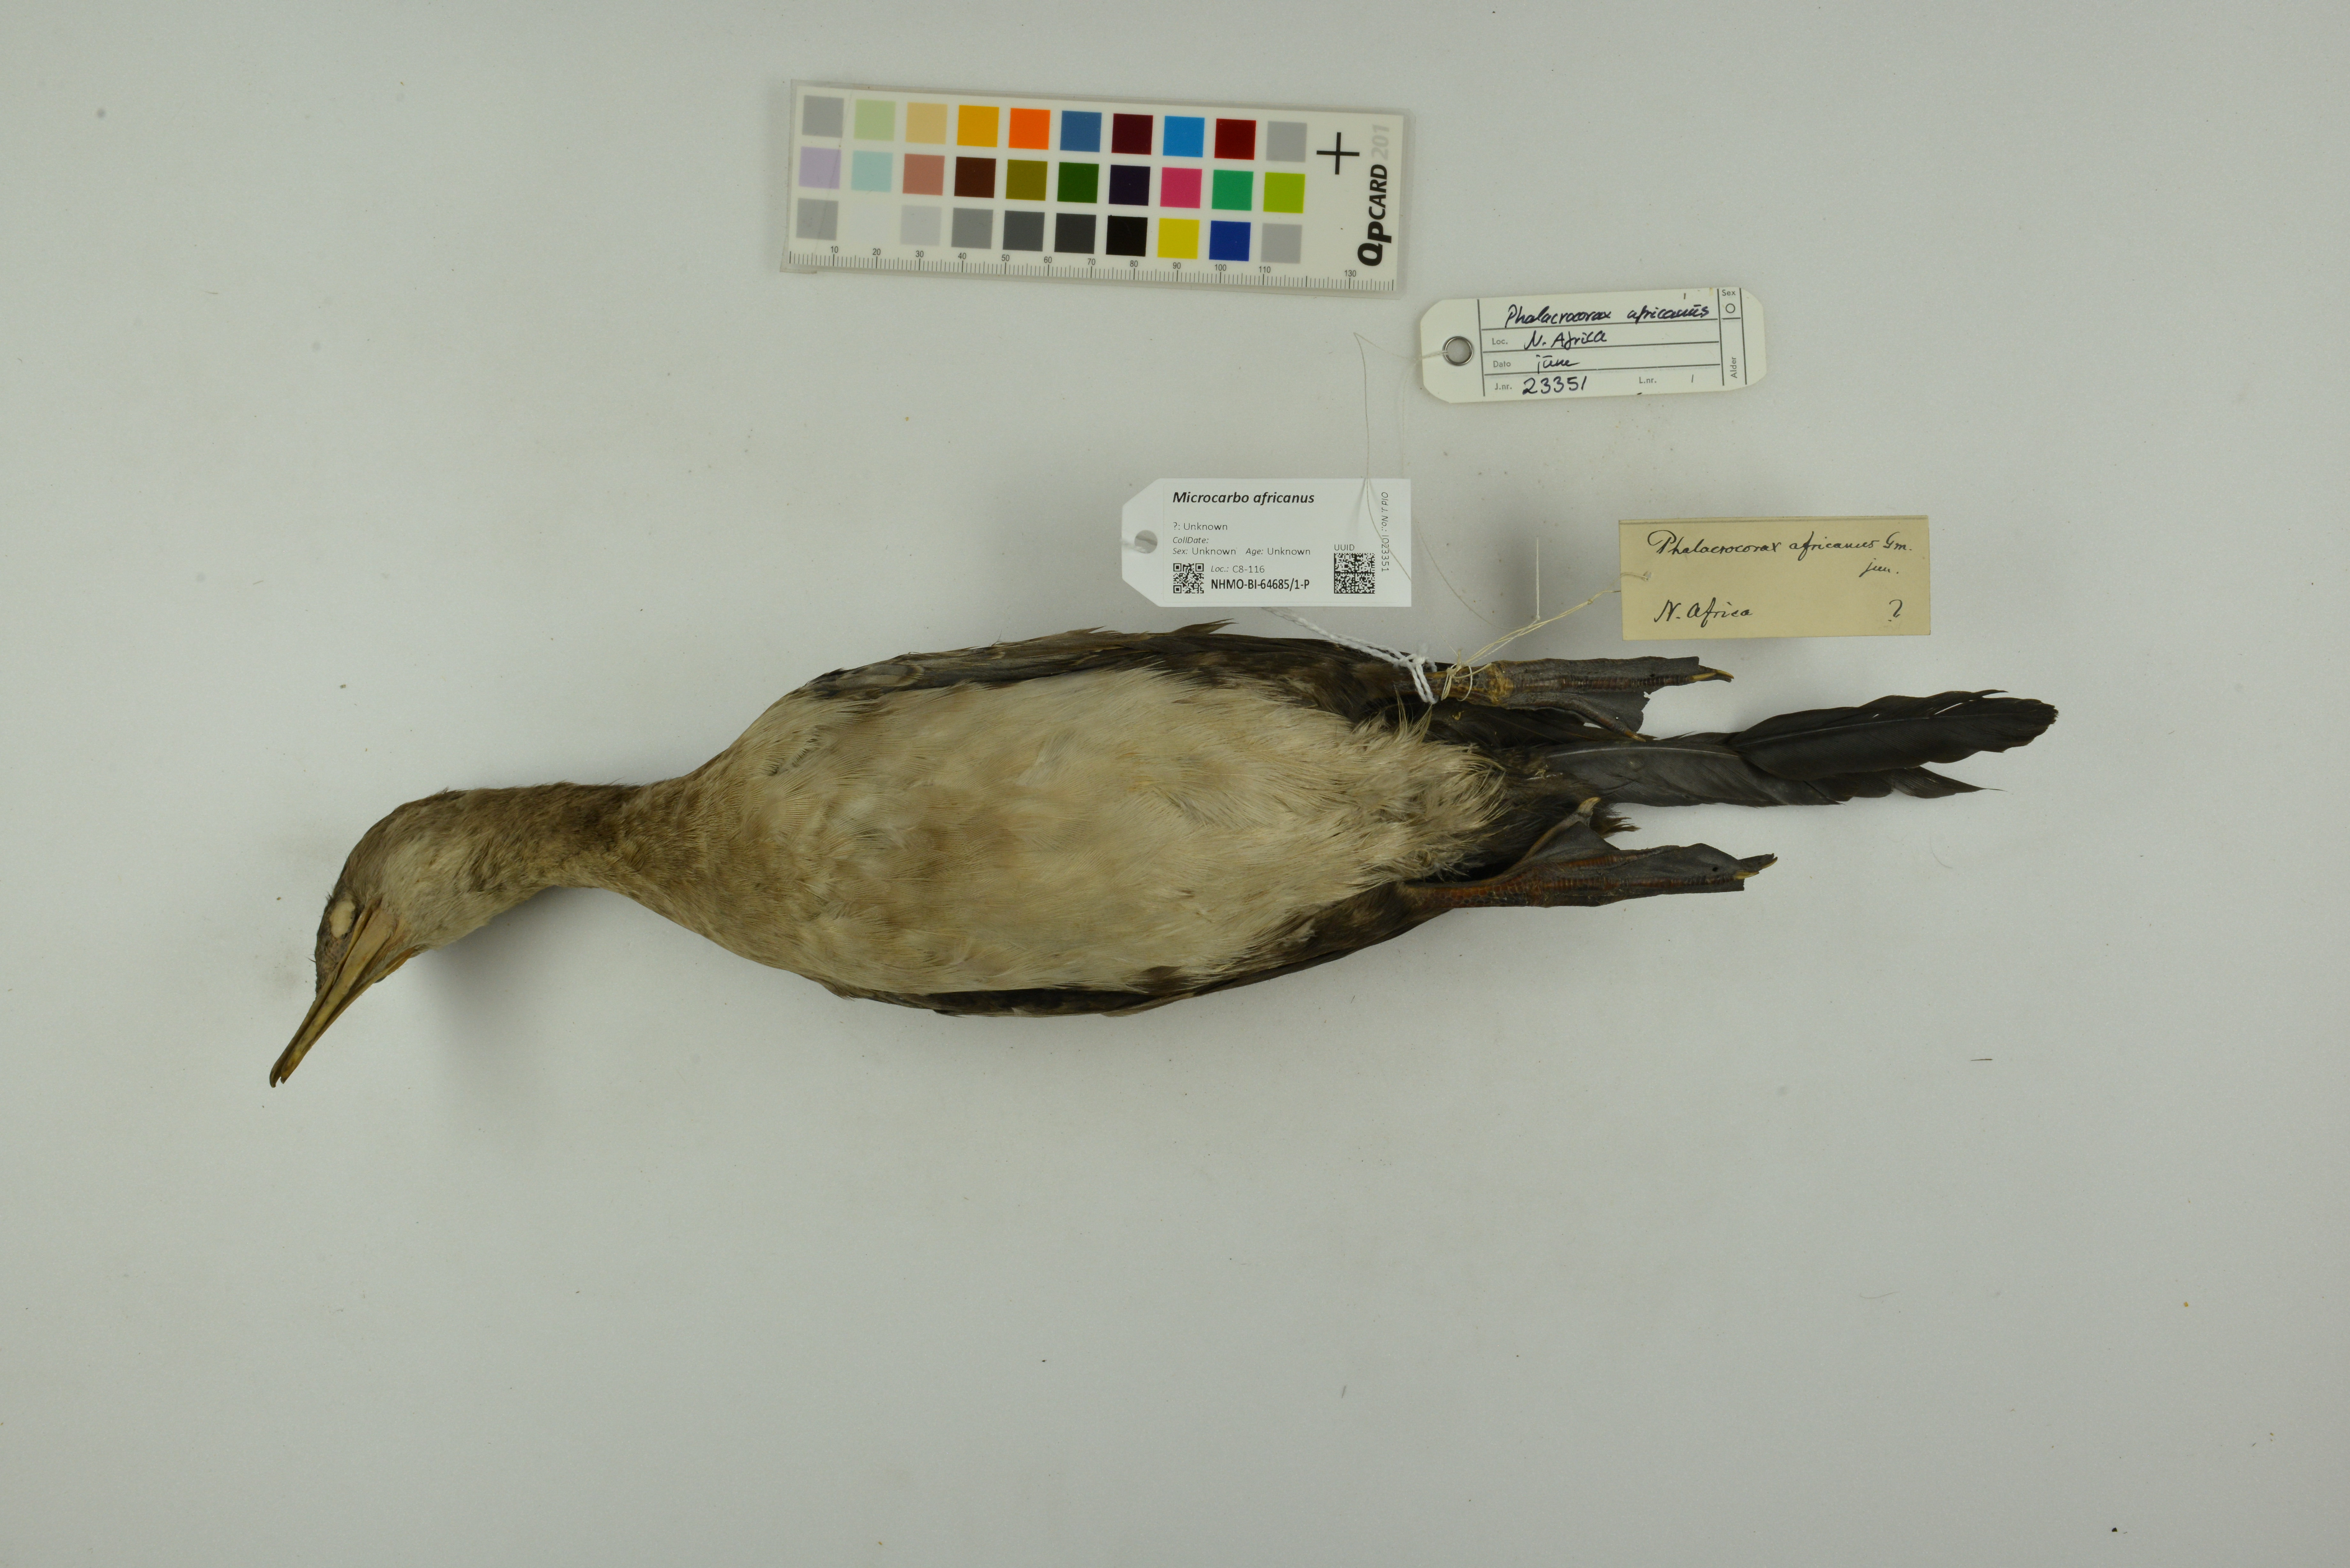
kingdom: Animalia
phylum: Chordata
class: Aves
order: Suliformes
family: Phalacrocoracidae
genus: Microcarbo
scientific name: Microcarbo africanus
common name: Long-tailed cormorant
